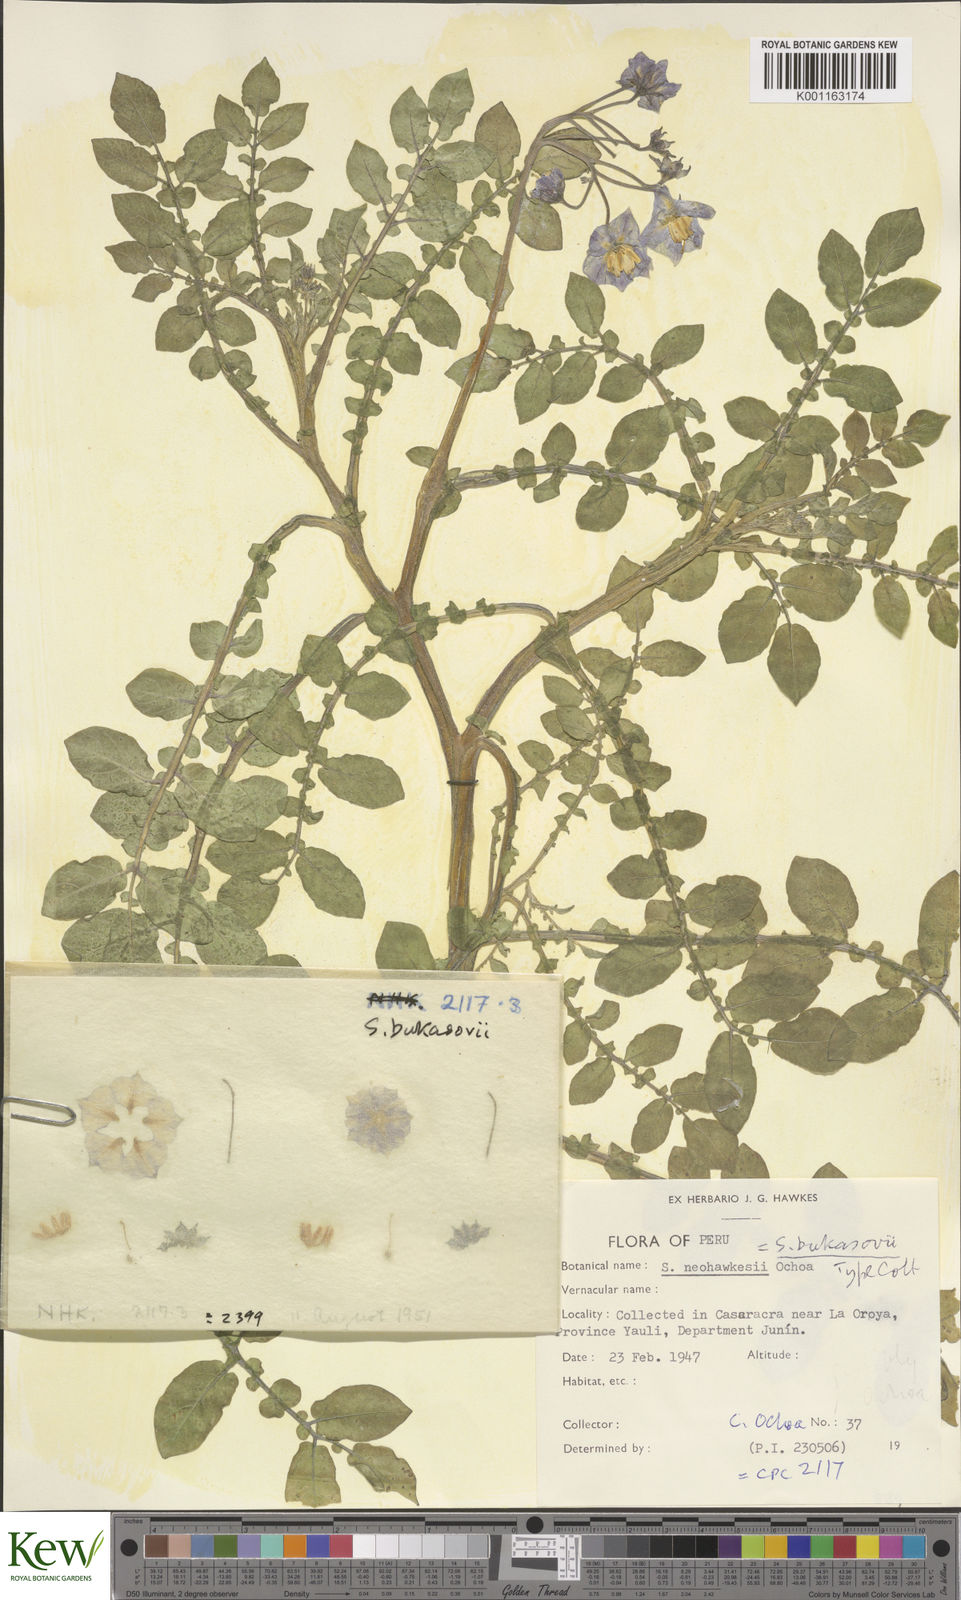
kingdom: Plantae
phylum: Tracheophyta
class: Magnoliopsida
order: Solanales
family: Solanaceae
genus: Solanum
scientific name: Solanum candolleanum
